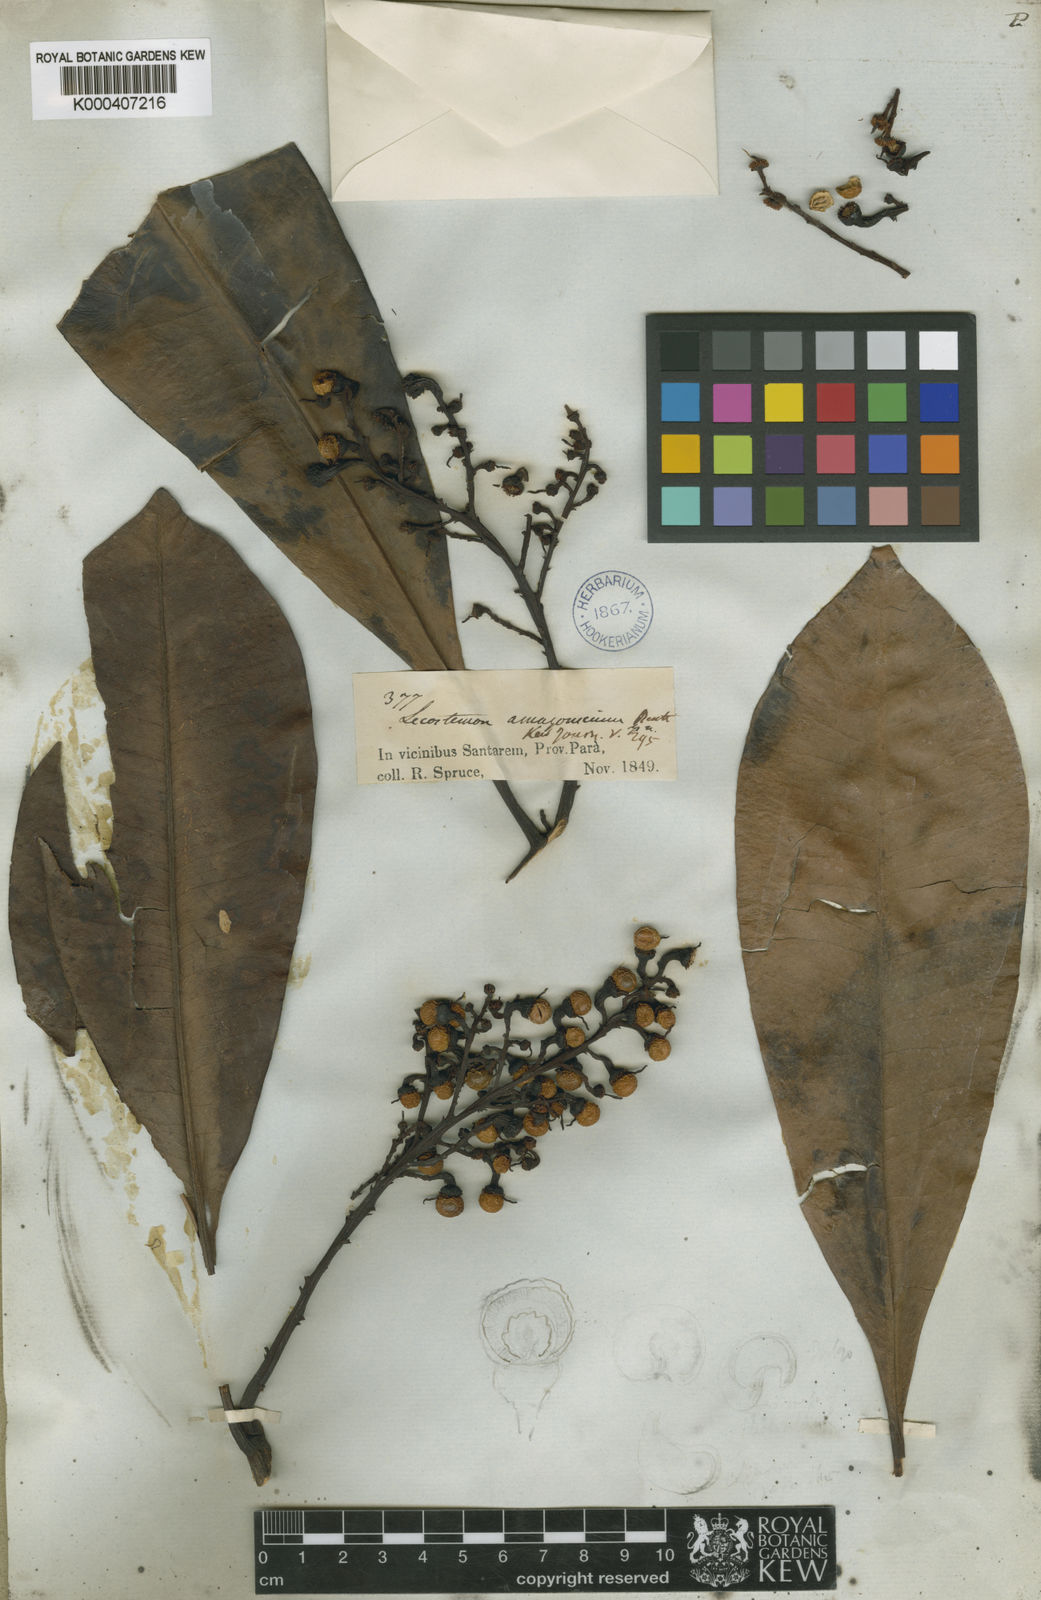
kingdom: Plantae
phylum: Tracheophyta
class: Magnoliopsida
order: Caryophyllales
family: Rhabdodendraceae
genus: Rhabdodendron
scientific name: Rhabdodendron amazonicum
